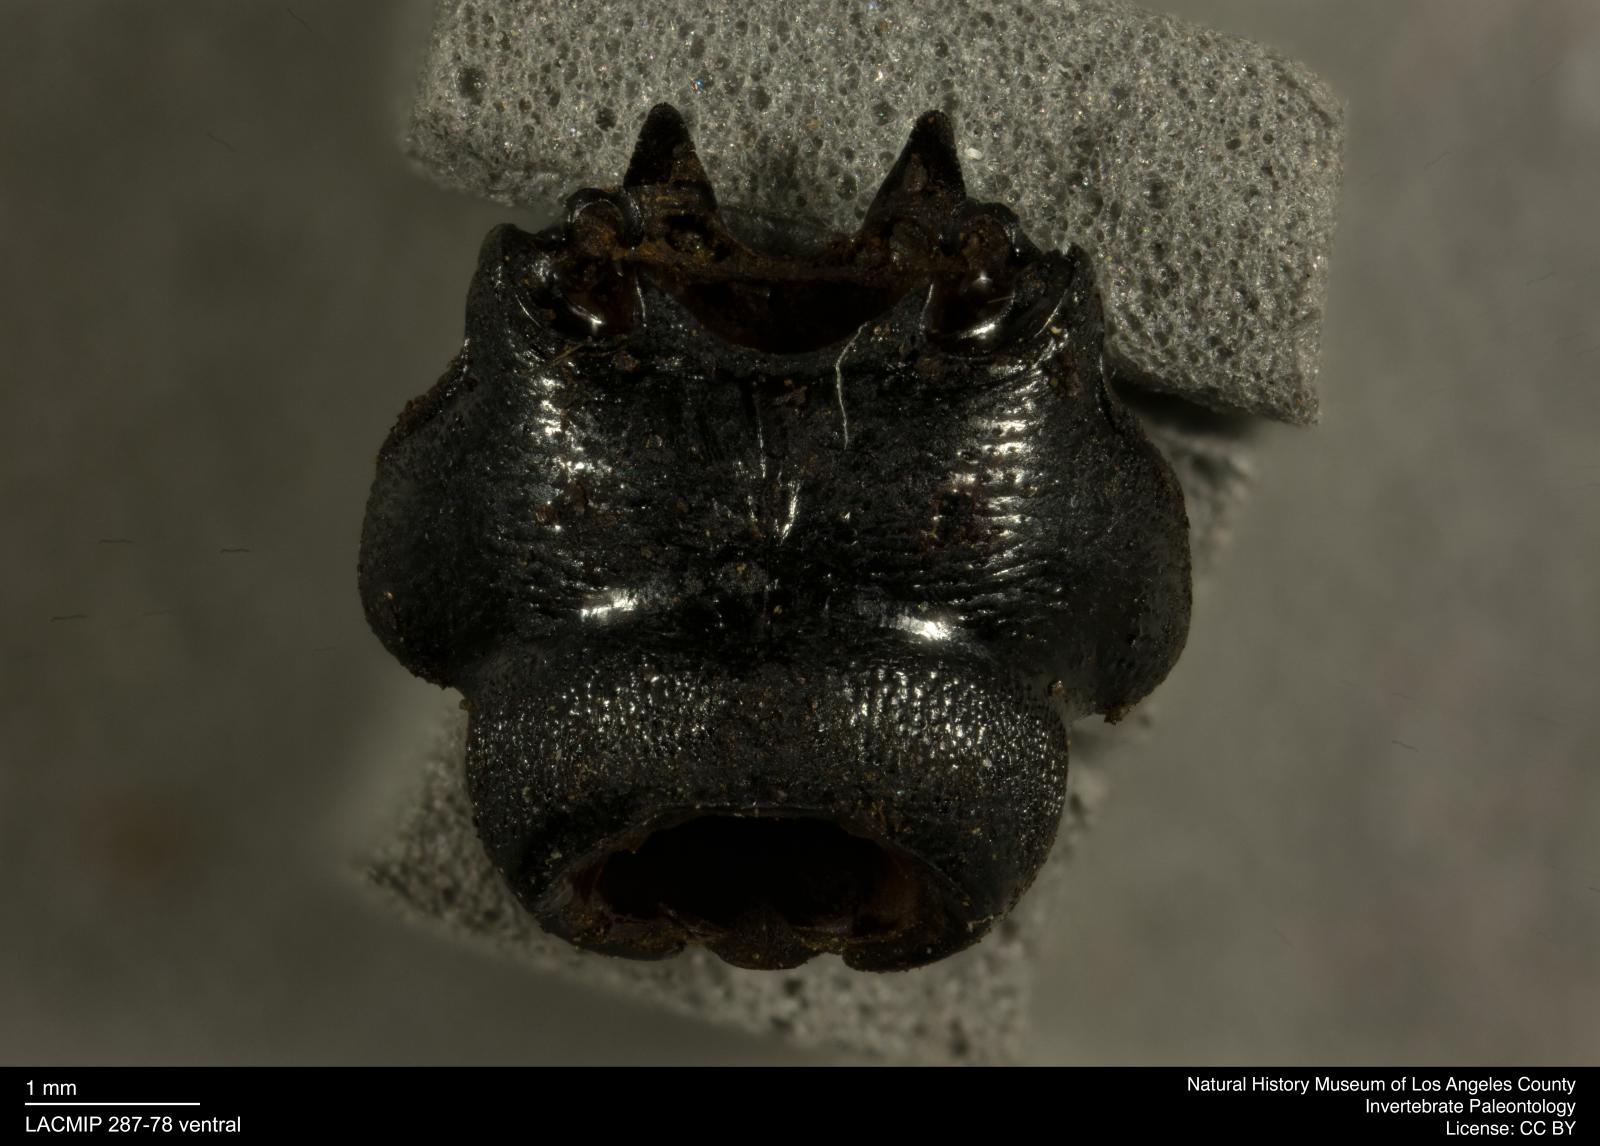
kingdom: Animalia
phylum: Arthropoda
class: Insecta
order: Coleoptera
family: Staphylinidae
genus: Nicrophorus
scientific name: Nicrophorus marginatus
